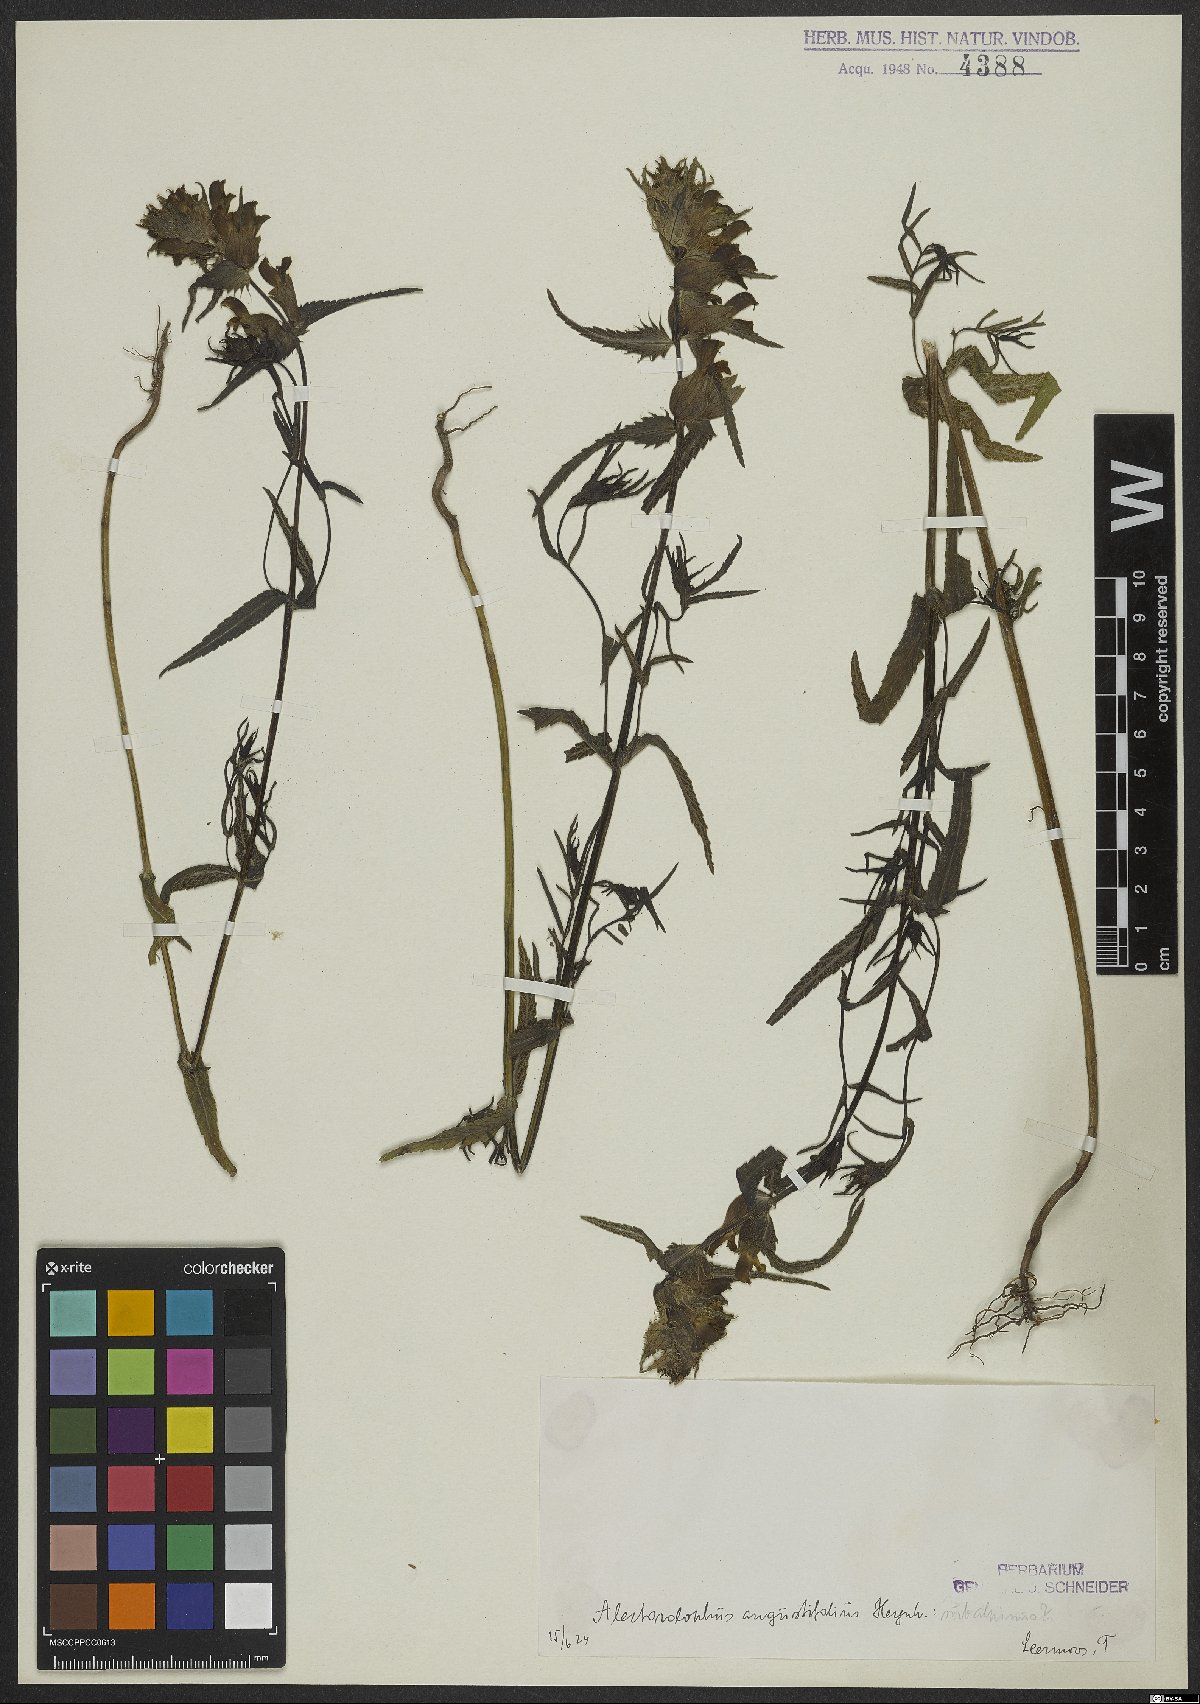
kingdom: Plantae
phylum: Tracheophyta
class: Magnoliopsida
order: Lamiales
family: Orobanchaceae
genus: Rhinanthus
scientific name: Rhinanthus glacialis
